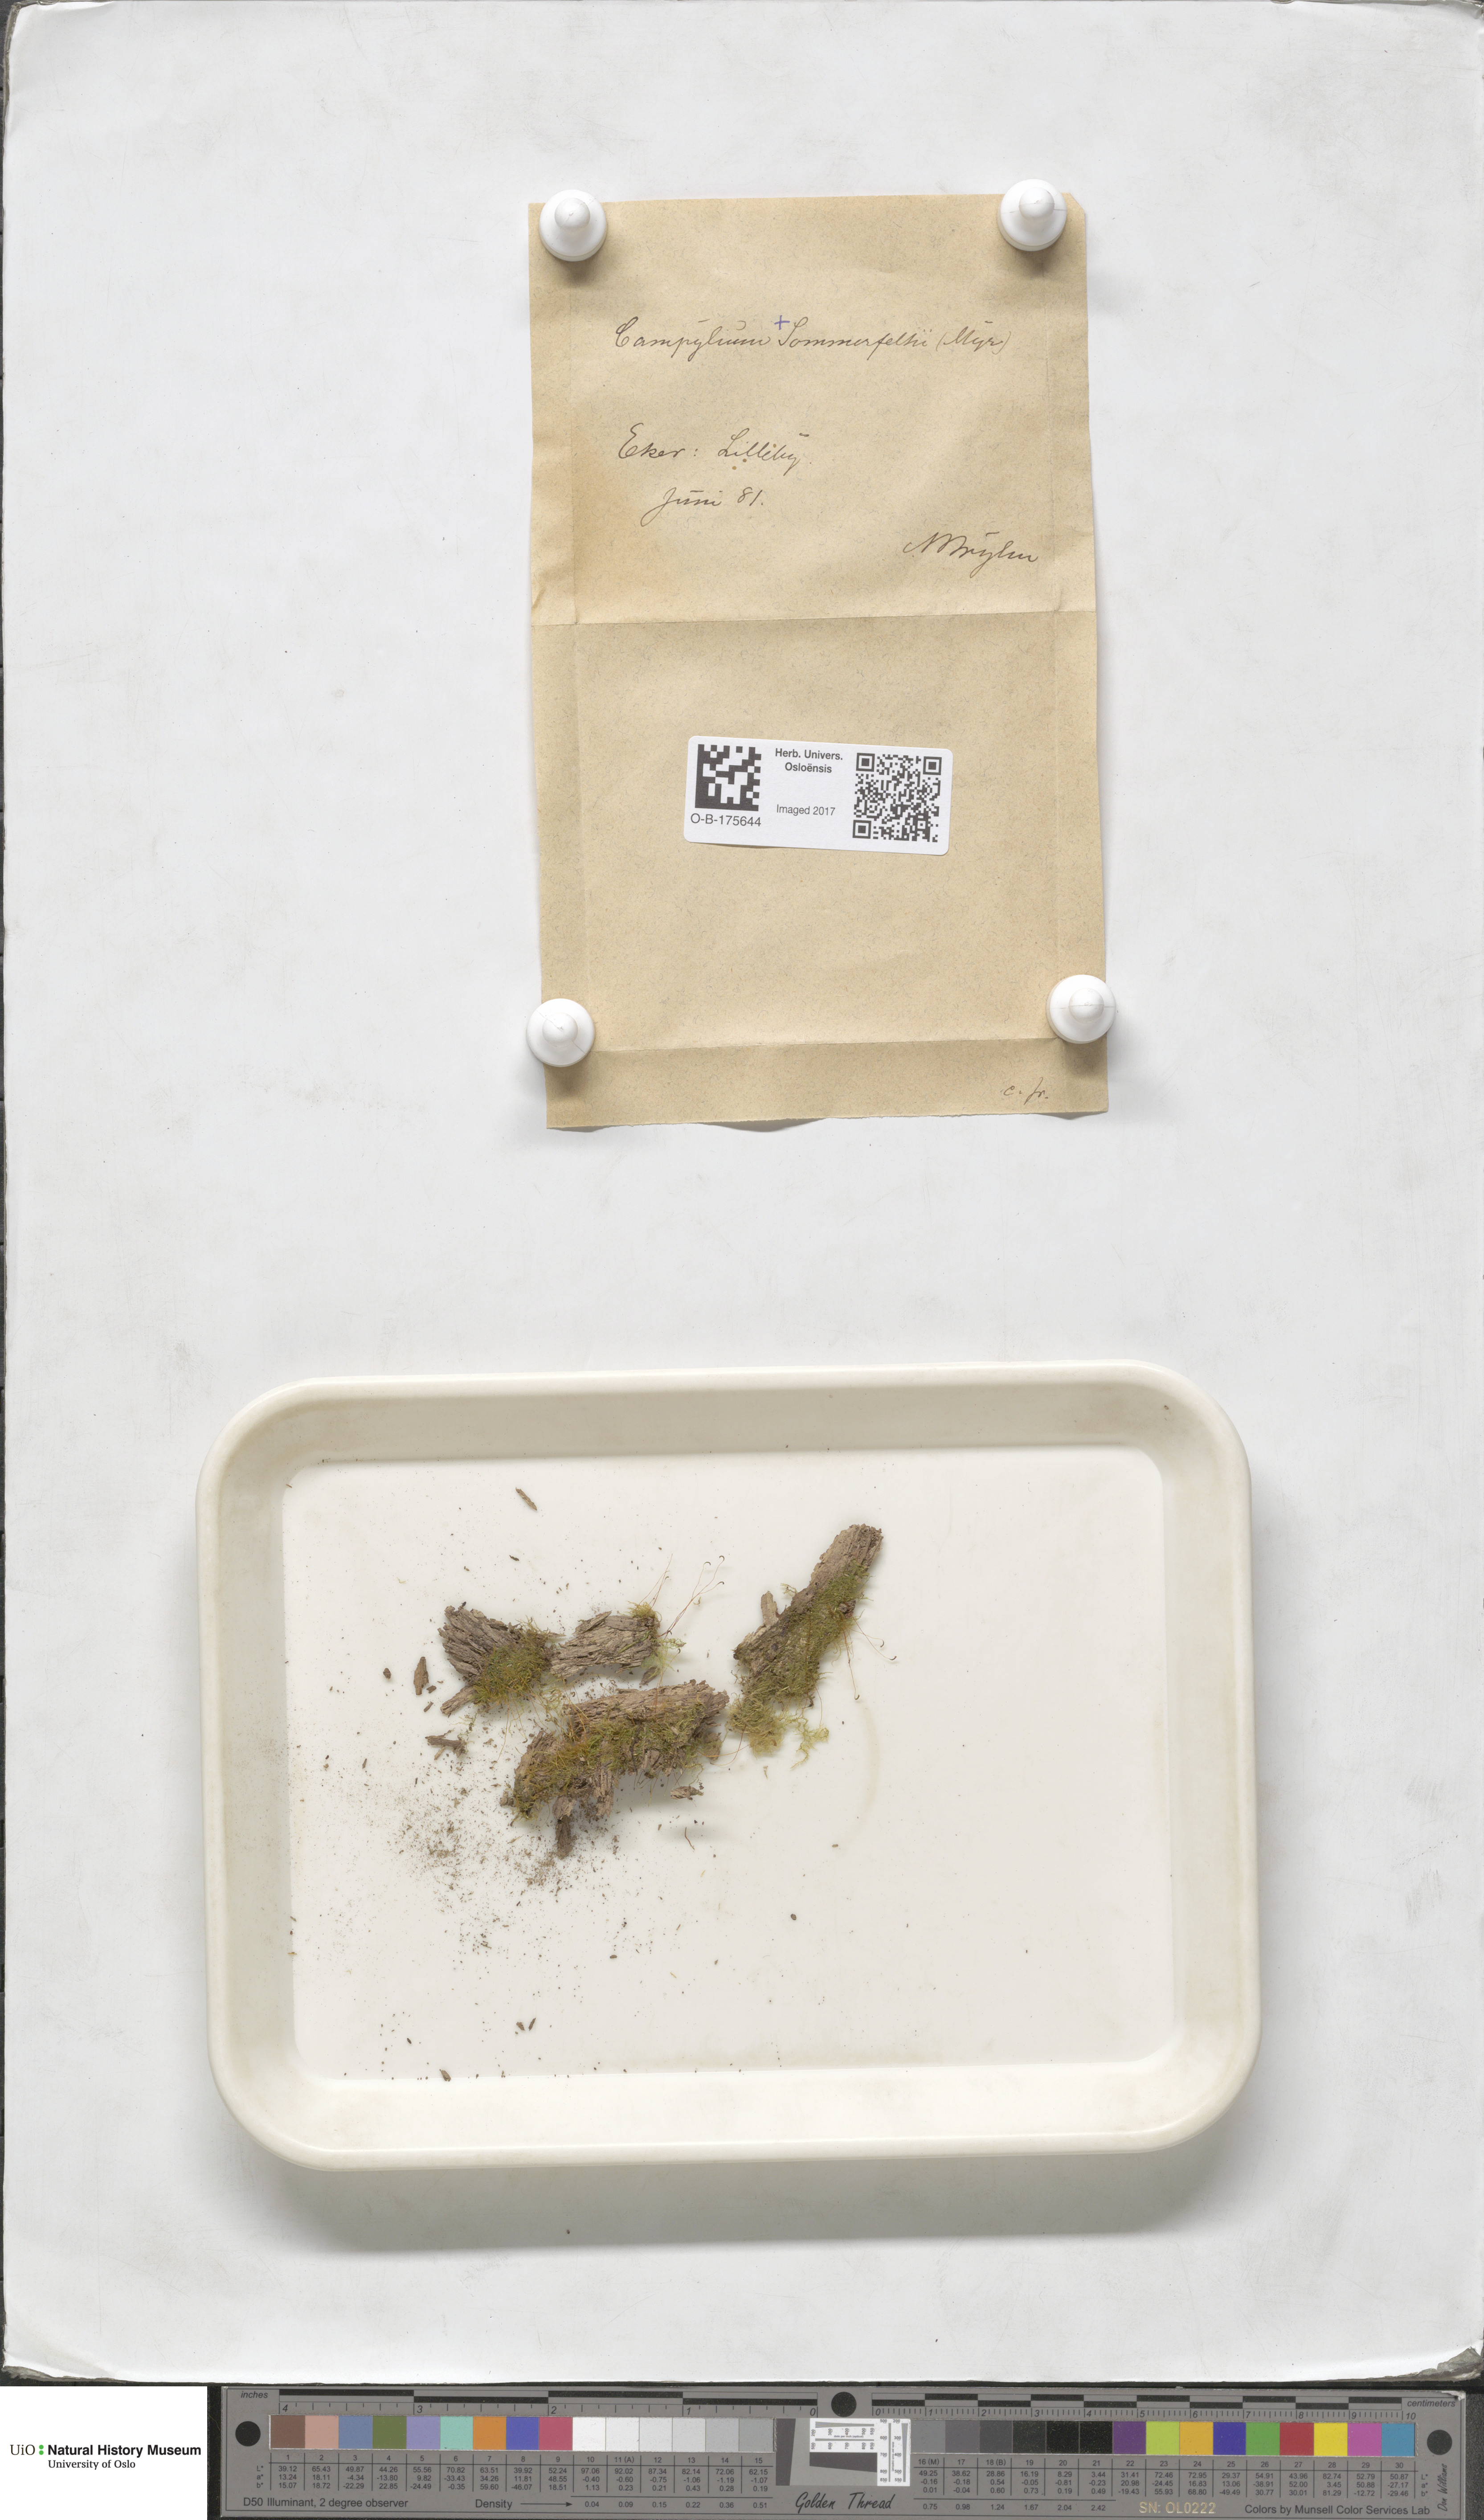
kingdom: Plantae
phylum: Bryophyta
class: Bryopsida
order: Hypnales
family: Amblystegiaceae
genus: Campylophyllopsis
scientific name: Campylophyllopsis calcarea
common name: Chalk feather-moss
